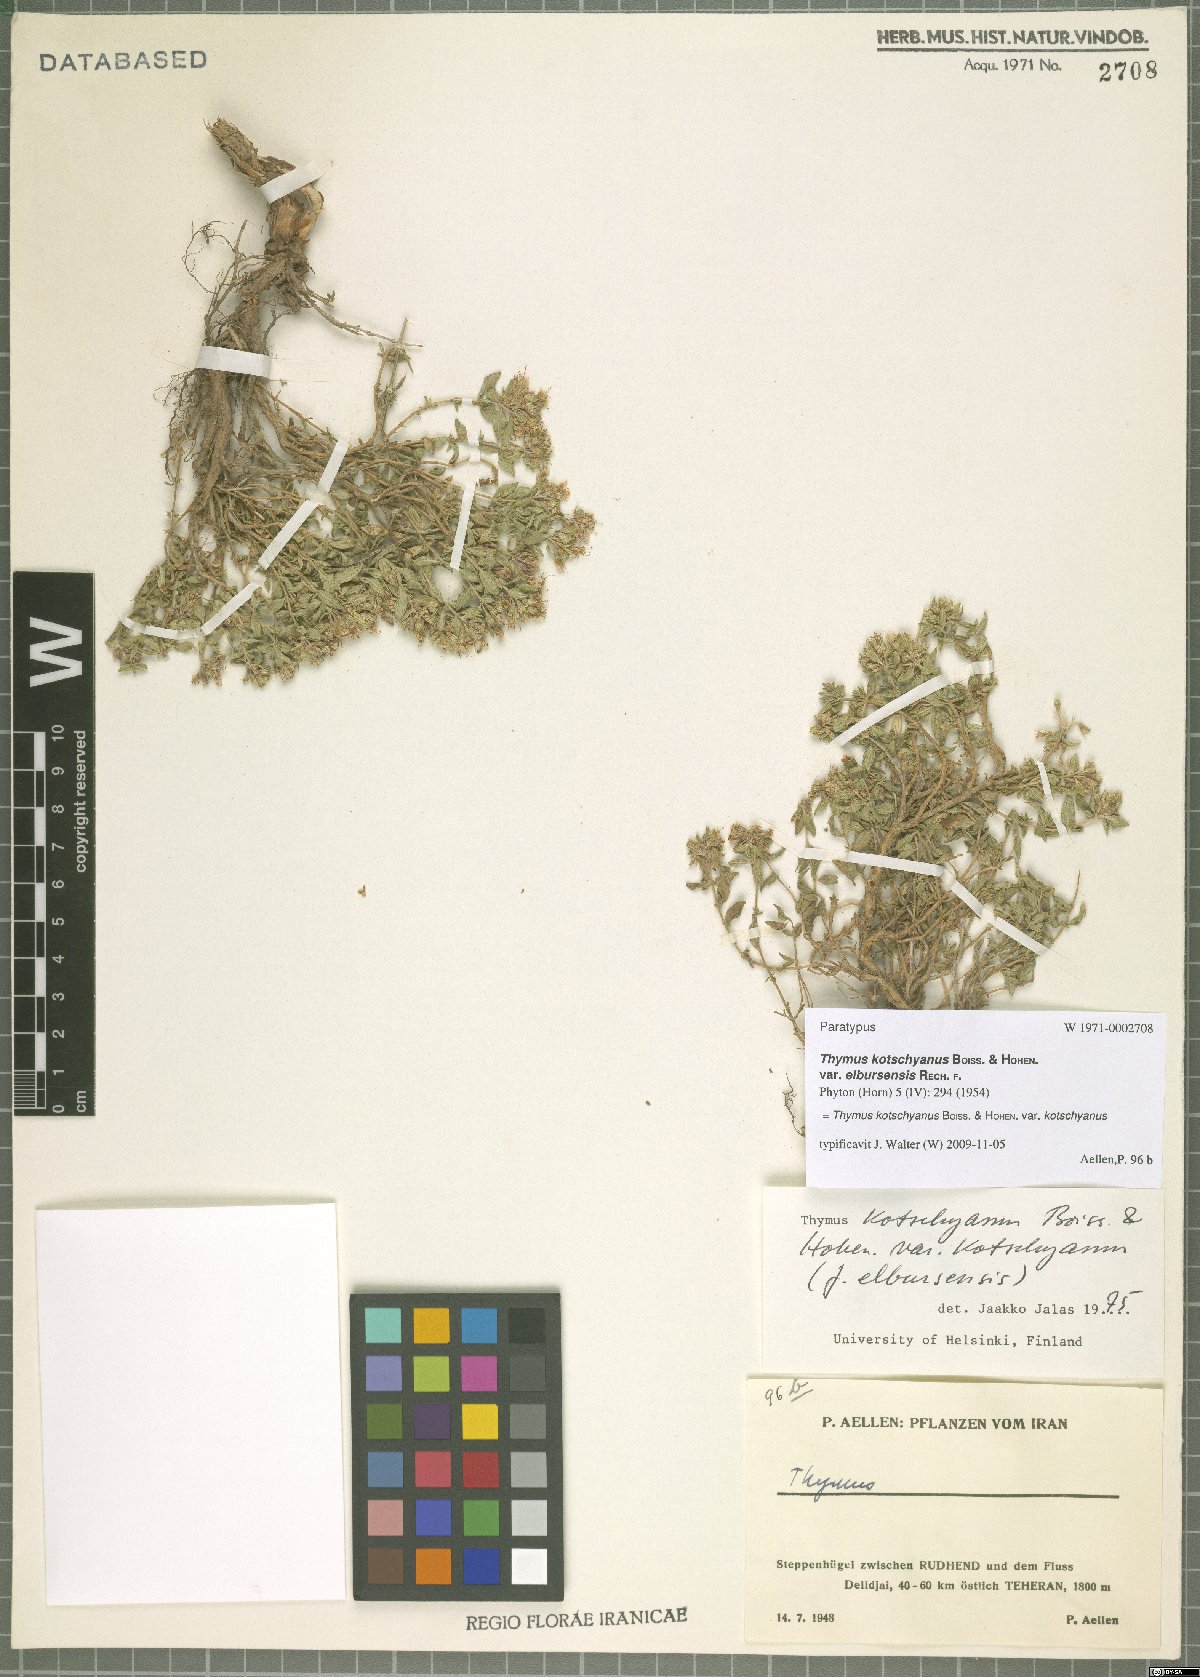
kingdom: Plantae
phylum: Tracheophyta
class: Magnoliopsida
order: Lamiales
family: Lamiaceae
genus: Thymus
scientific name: Thymus kotschyanus
